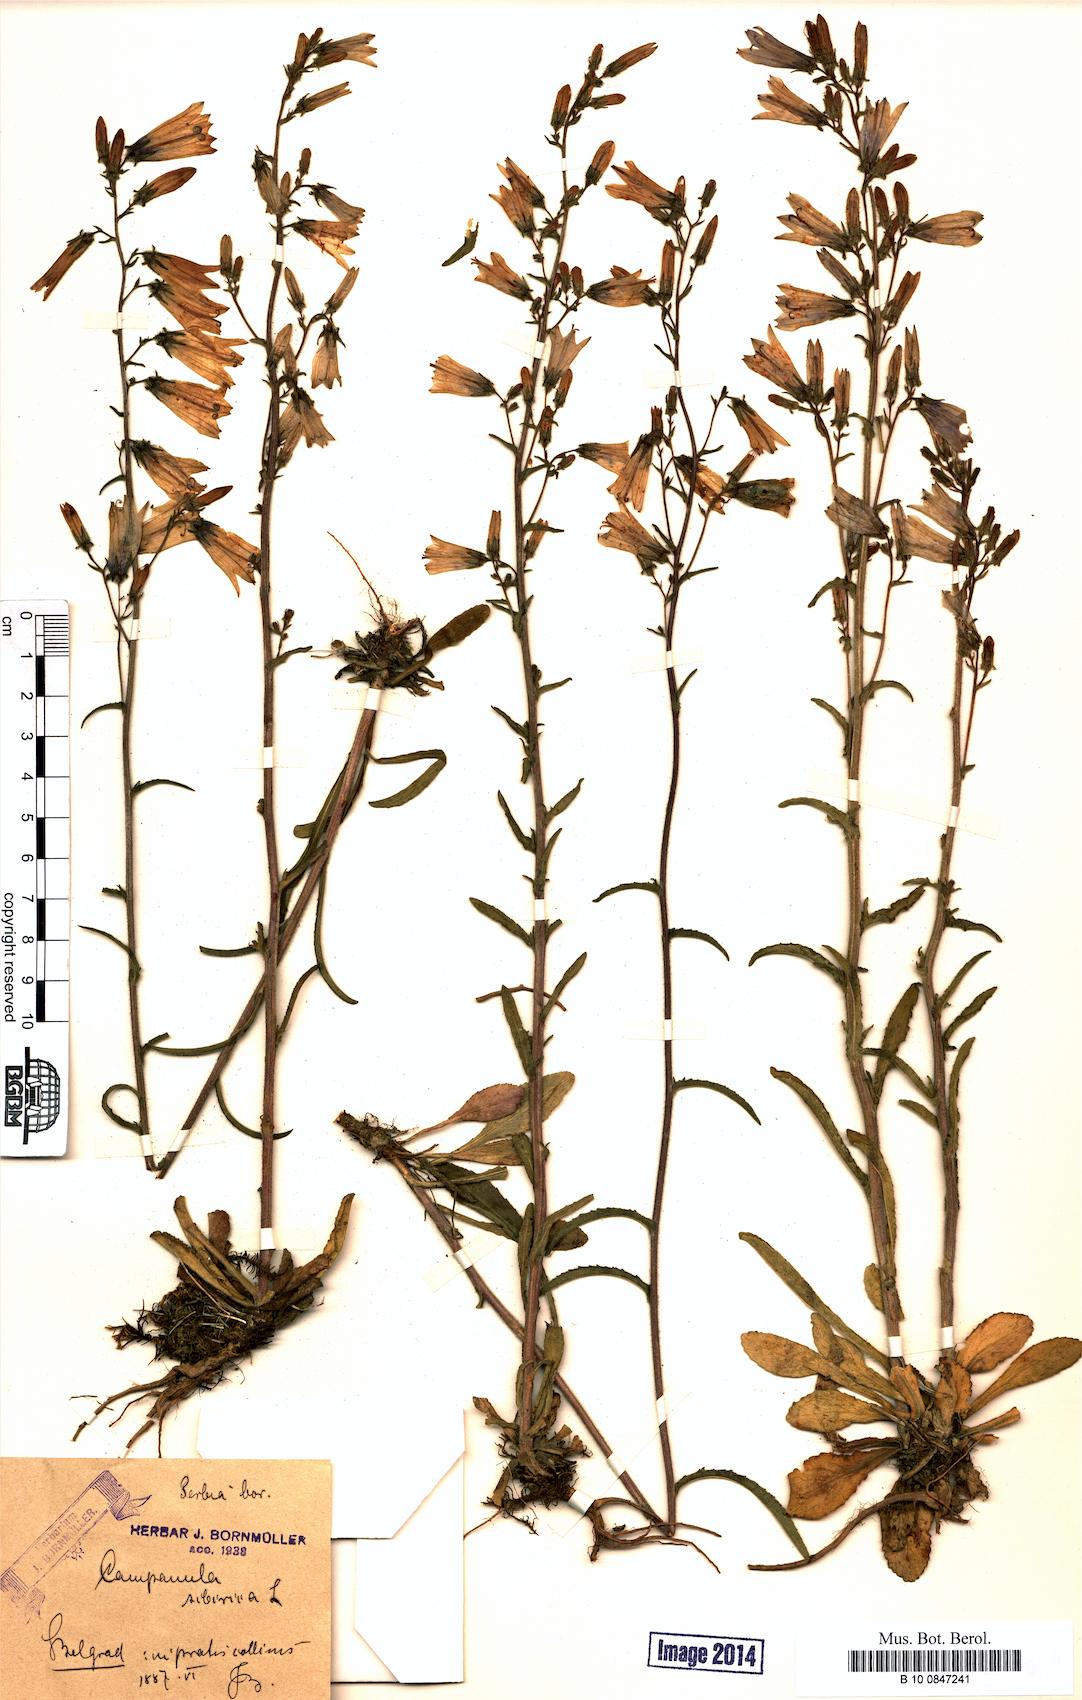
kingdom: Plantae
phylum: Tracheophyta
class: Magnoliopsida
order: Asterales
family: Campanulaceae
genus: Campanula
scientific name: Campanula sibirica
